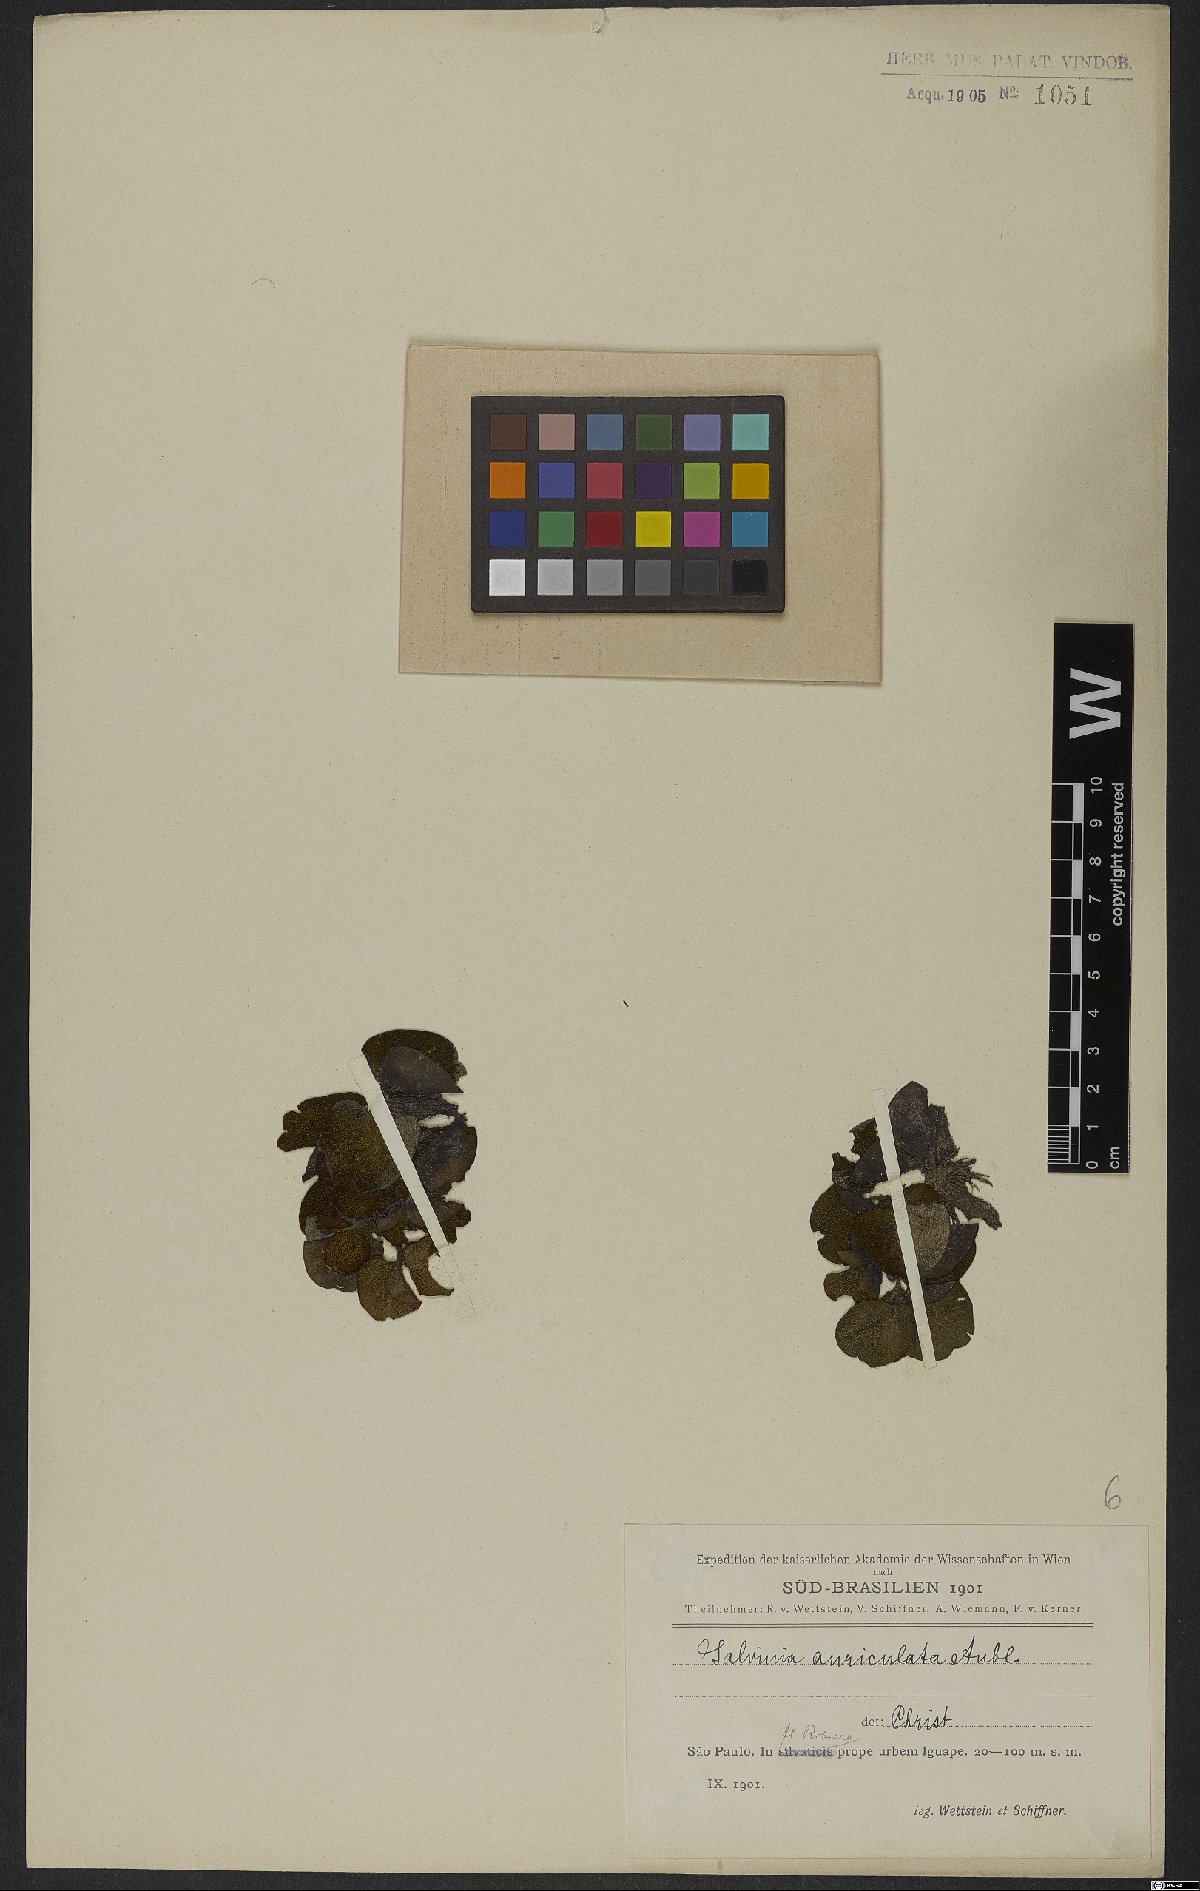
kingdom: Plantae
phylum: Tracheophyta
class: Polypodiopsida
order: Salviniales
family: Salviniaceae
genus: Salvinia
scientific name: Salvinia auriculata
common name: African payal
